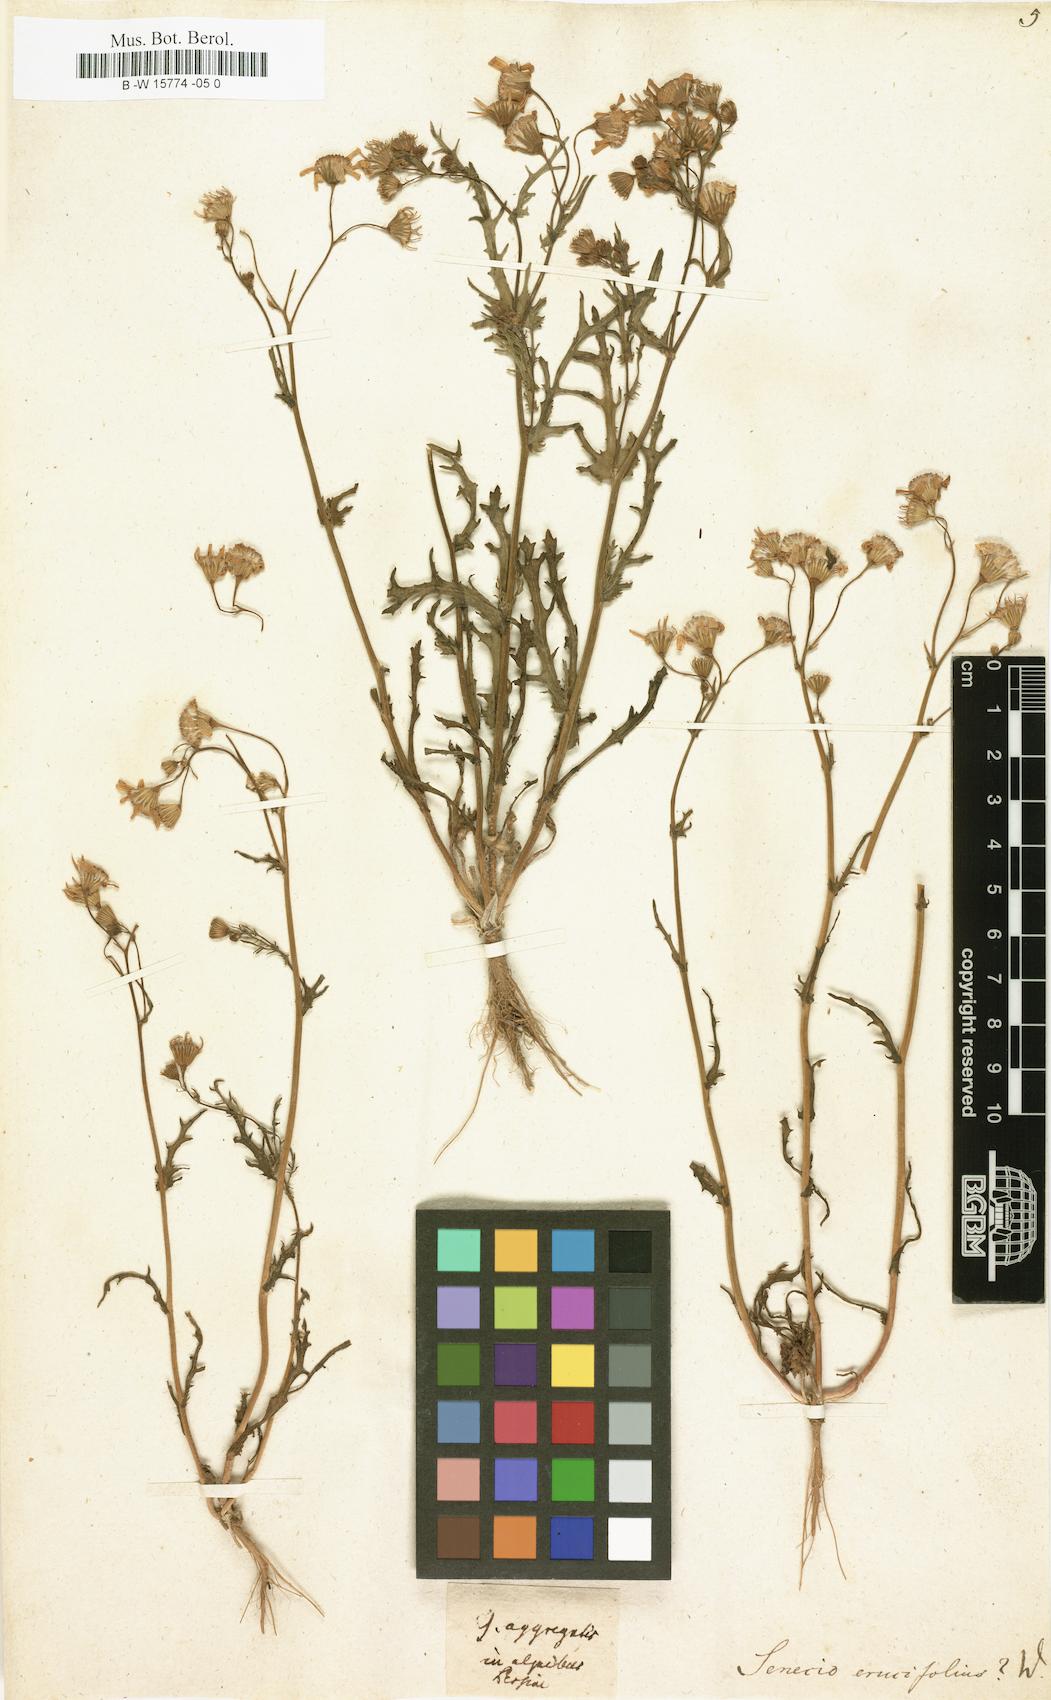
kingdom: Plantae
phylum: Tracheophyta
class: Magnoliopsida
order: Asterales
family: Asteraceae
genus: Jacobaea
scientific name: Jacobaea
